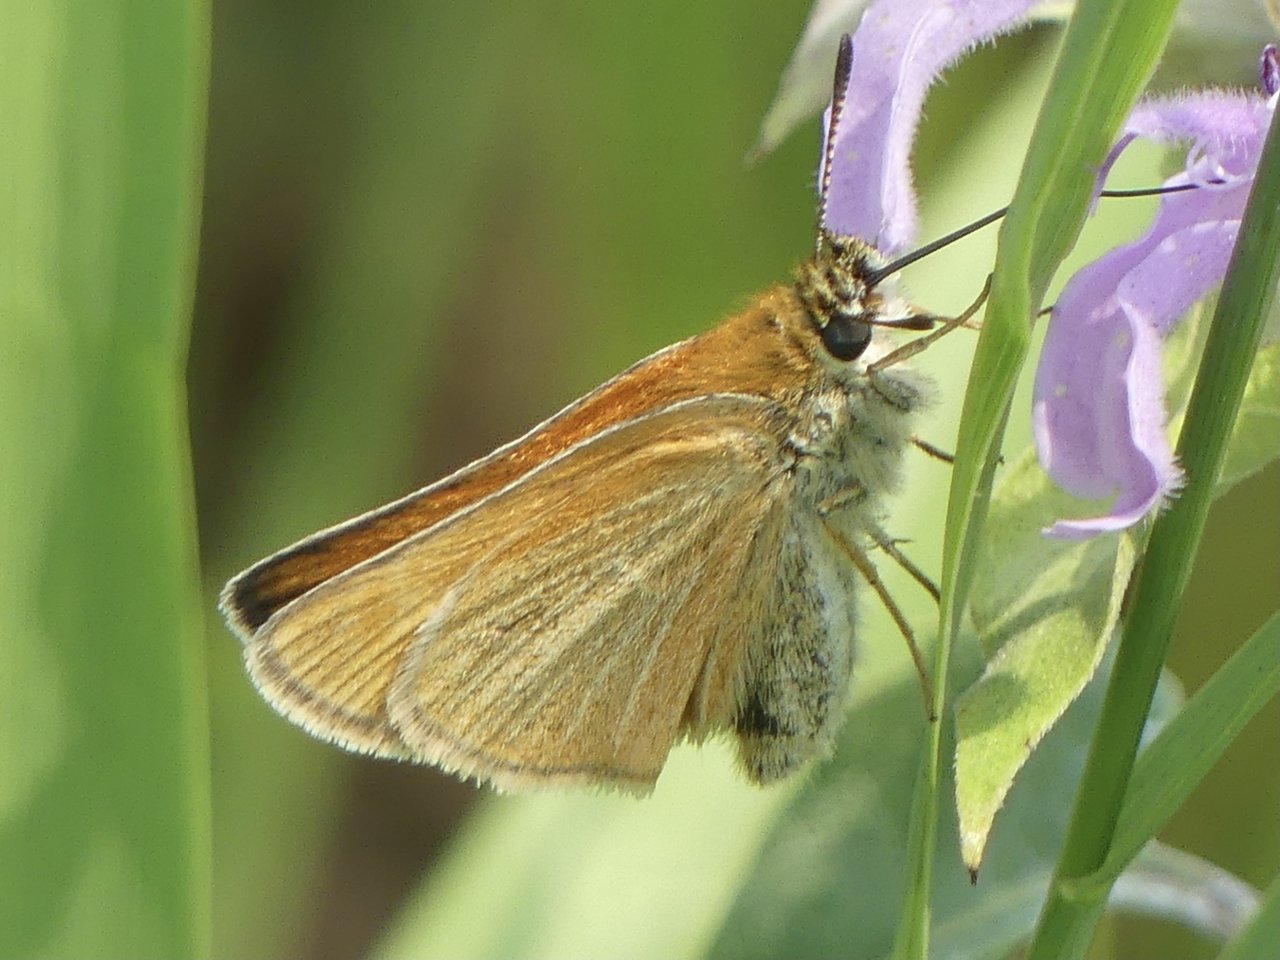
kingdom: Animalia
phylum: Arthropoda
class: Insecta
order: Lepidoptera
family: Hesperiidae
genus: Thymelicus
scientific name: Thymelicus lineola
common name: European Skipper
